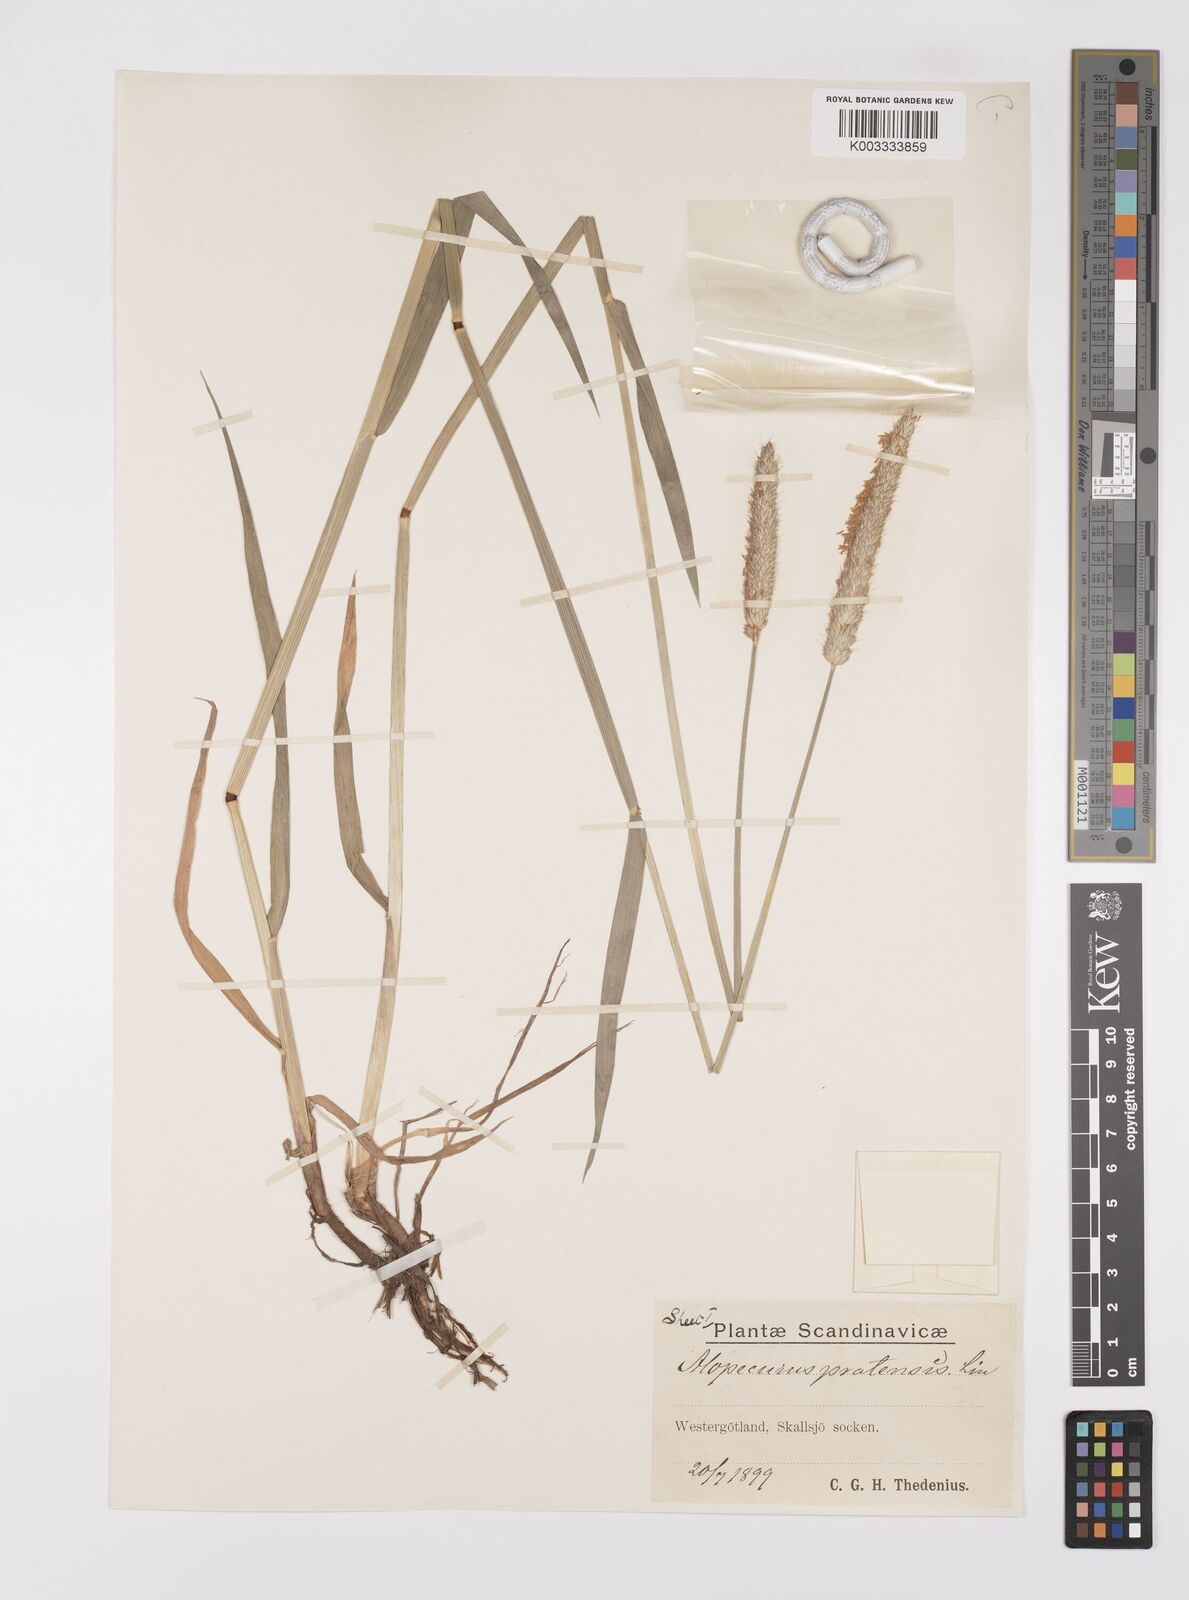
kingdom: Plantae
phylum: Tracheophyta
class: Liliopsida
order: Poales
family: Poaceae
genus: Alopecurus
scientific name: Alopecurus pratensis
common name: Meadow foxtail
